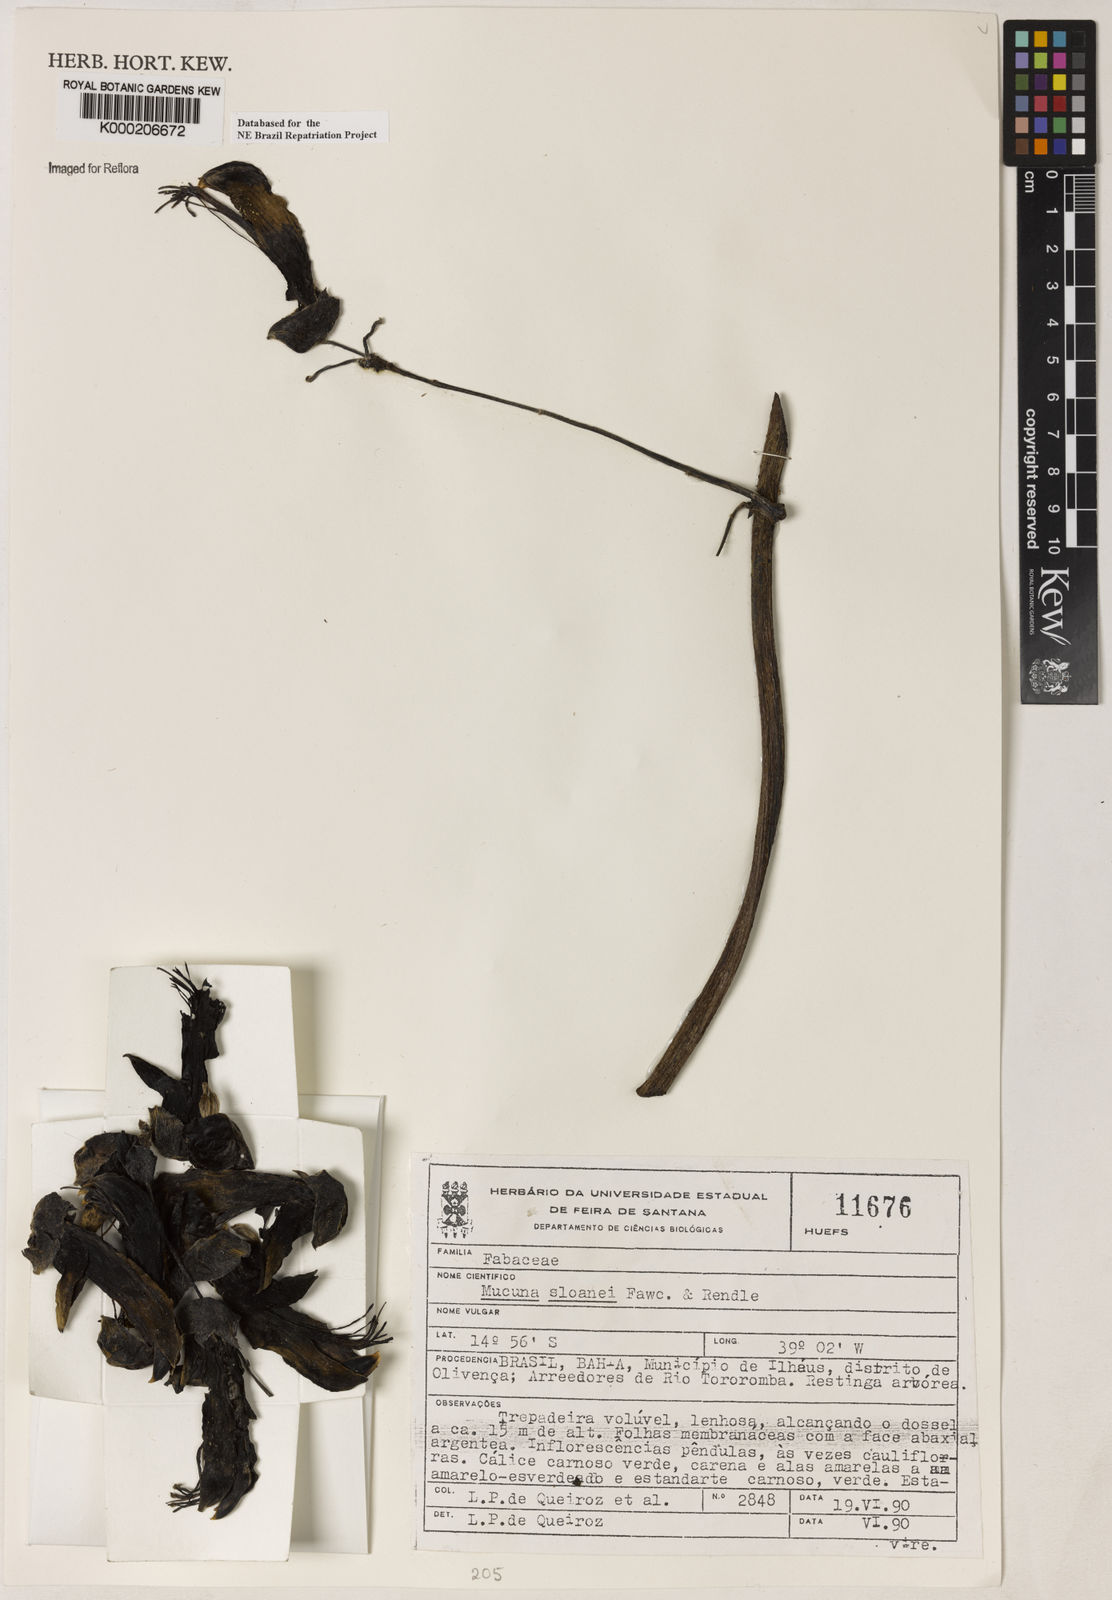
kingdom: Plantae
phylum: Tracheophyta
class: Magnoliopsida
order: Fabales
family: Fabaceae
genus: Mucuna
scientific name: Mucuna sloanei
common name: Horse-eye bean
